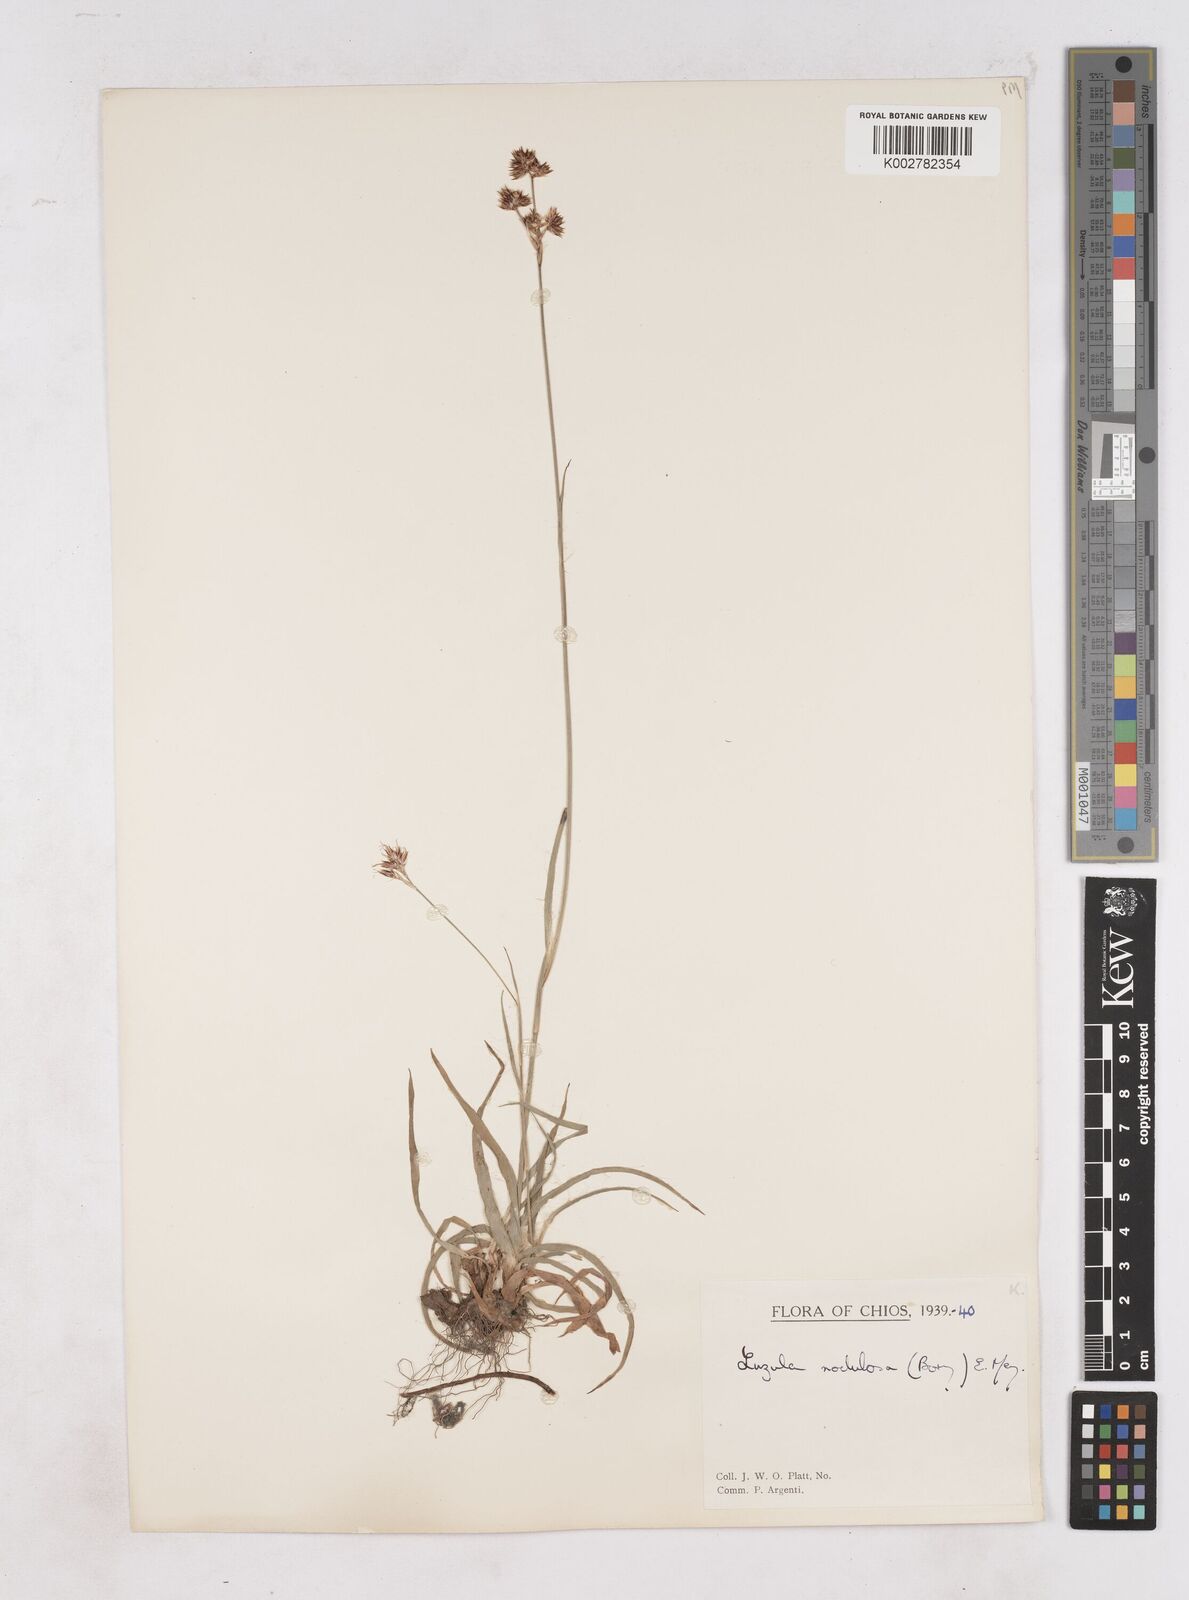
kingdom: Plantae
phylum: Tracheophyta
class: Liliopsida
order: Poales
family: Juncaceae
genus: Luzula
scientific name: Luzula nodulosa
